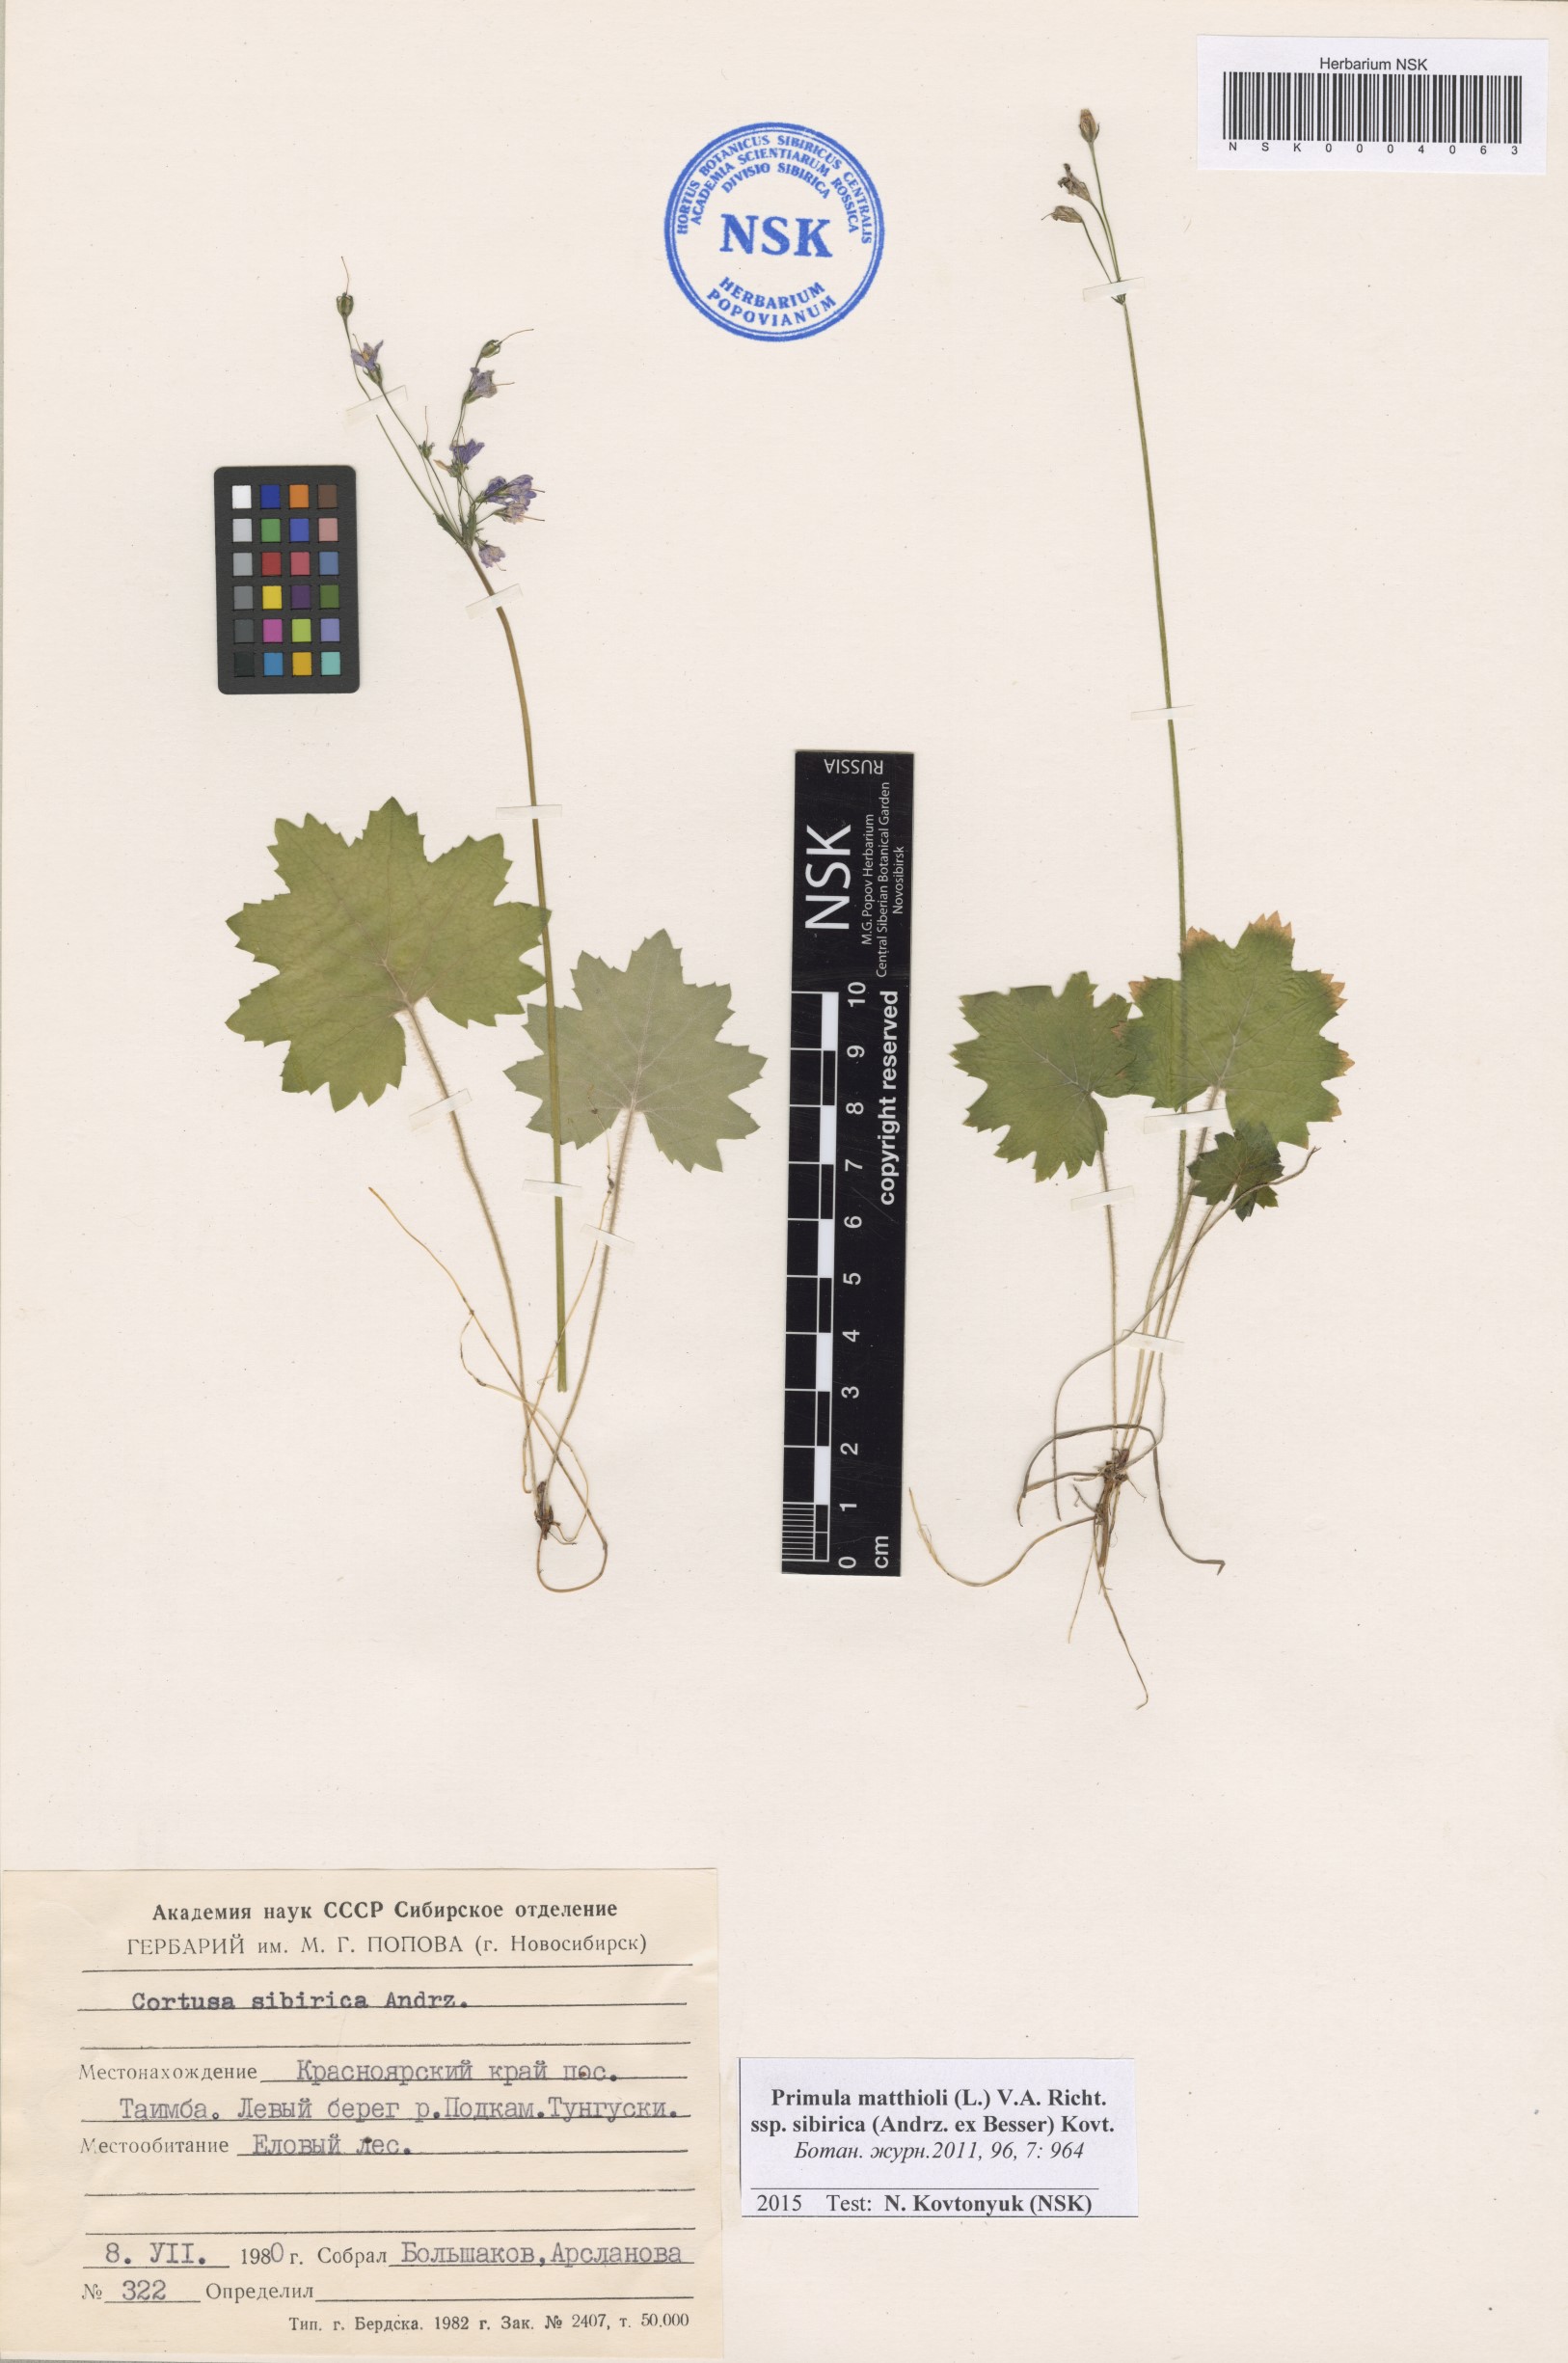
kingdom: Plantae
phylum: Tracheophyta
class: Magnoliopsida
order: Ericales
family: Primulaceae
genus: Primula
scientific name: Primula matthioli
